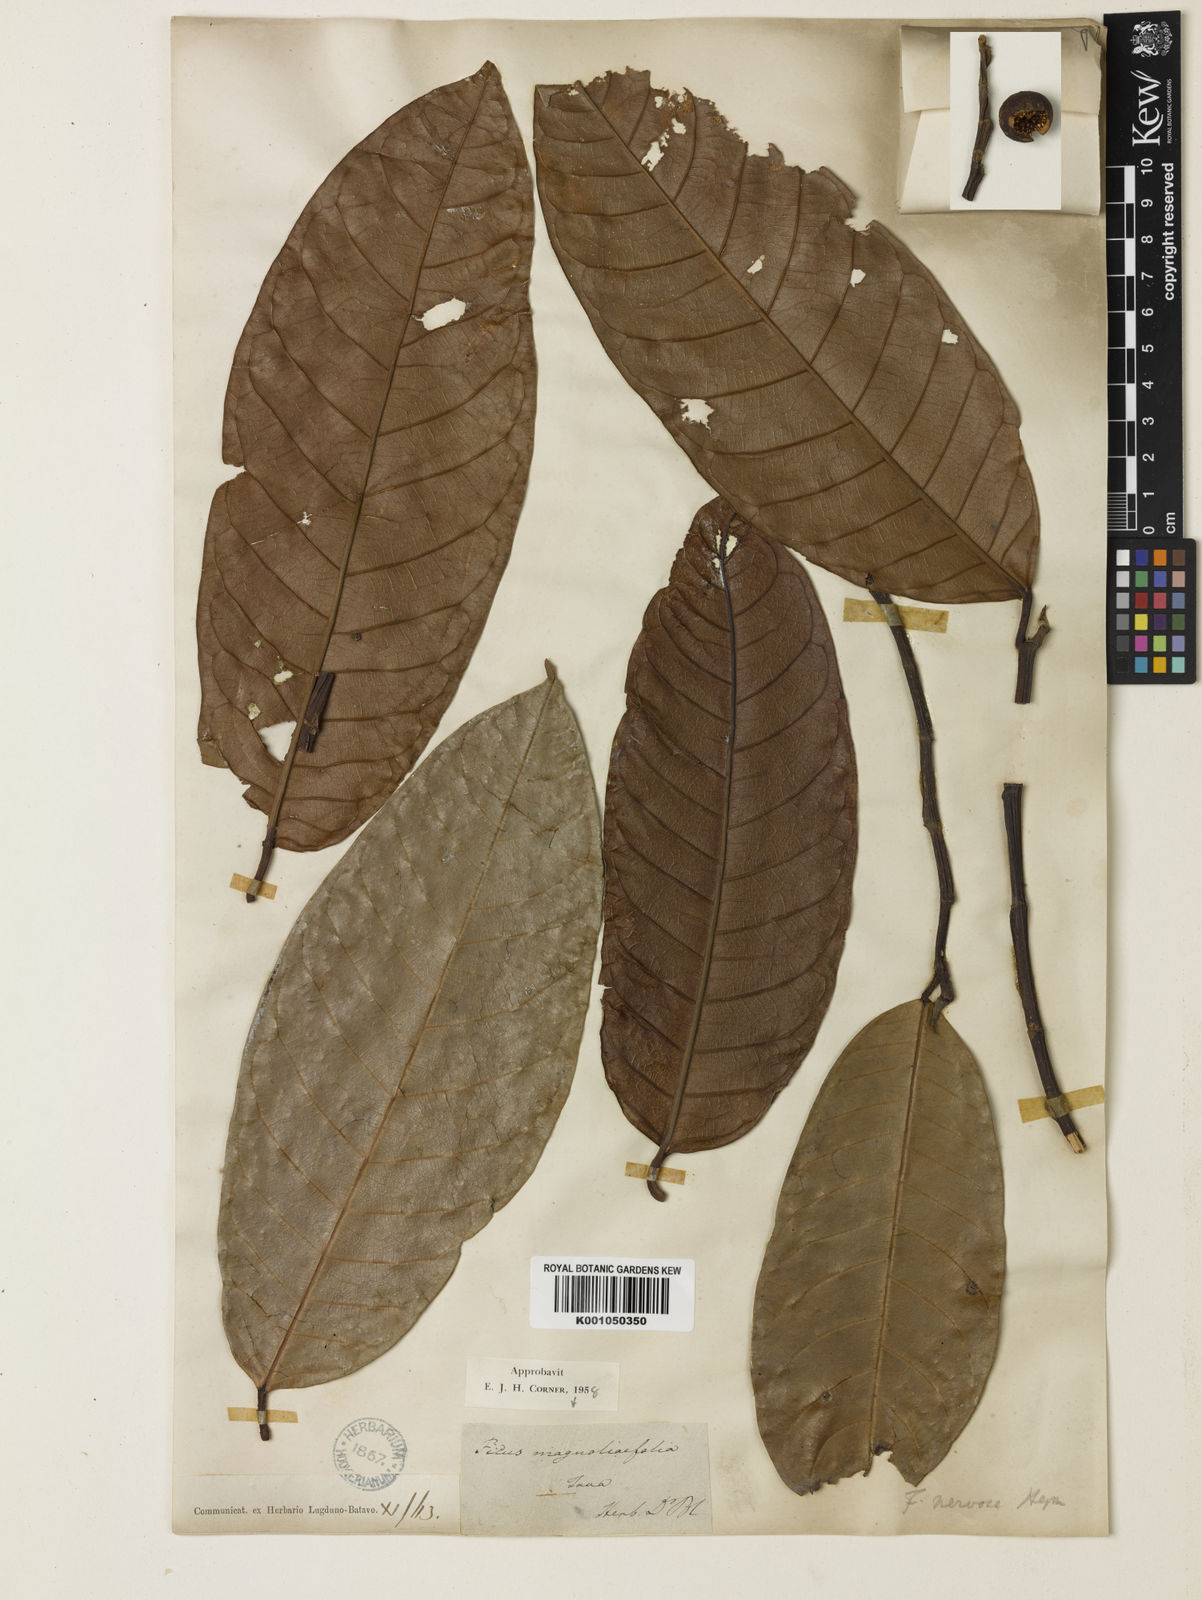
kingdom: Plantae
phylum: Tracheophyta
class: Magnoliopsida
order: Rosales
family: Moraceae
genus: Ficus
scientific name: Ficus magnoliifolia
